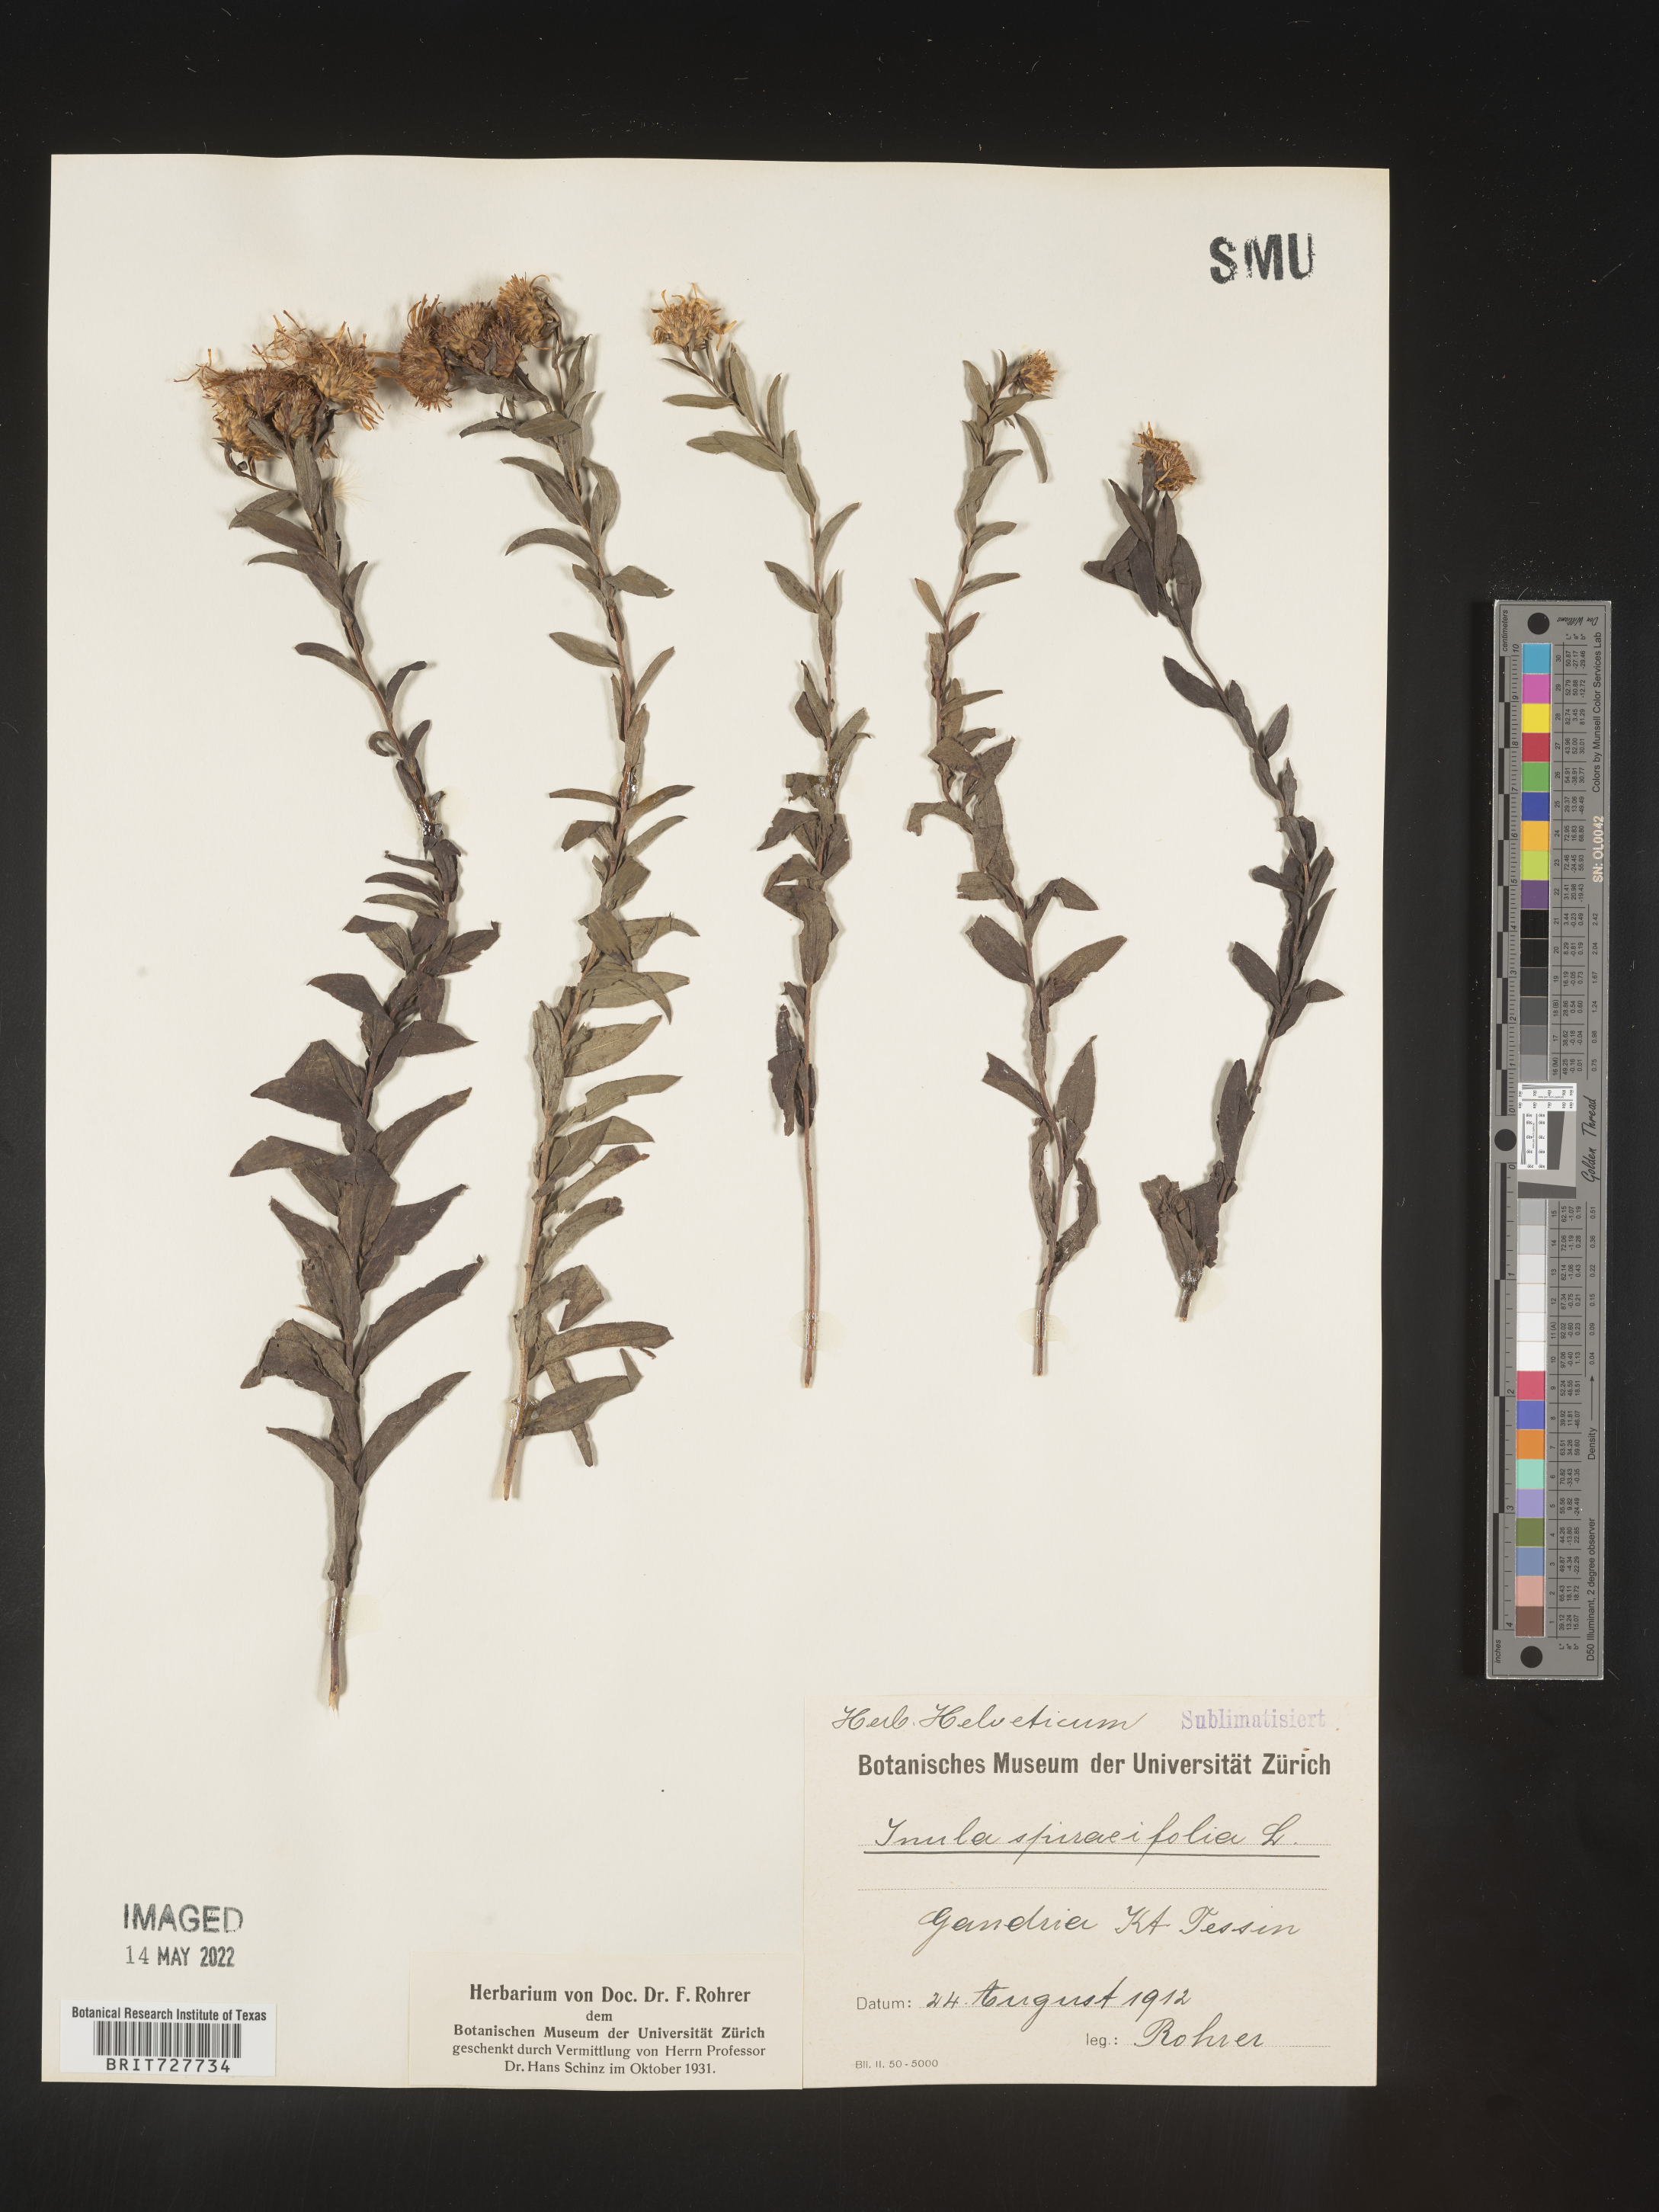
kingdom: Plantae
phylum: Tracheophyta
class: Magnoliopsida
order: Asterales
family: Asteraceae
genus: Inula
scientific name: Inula
